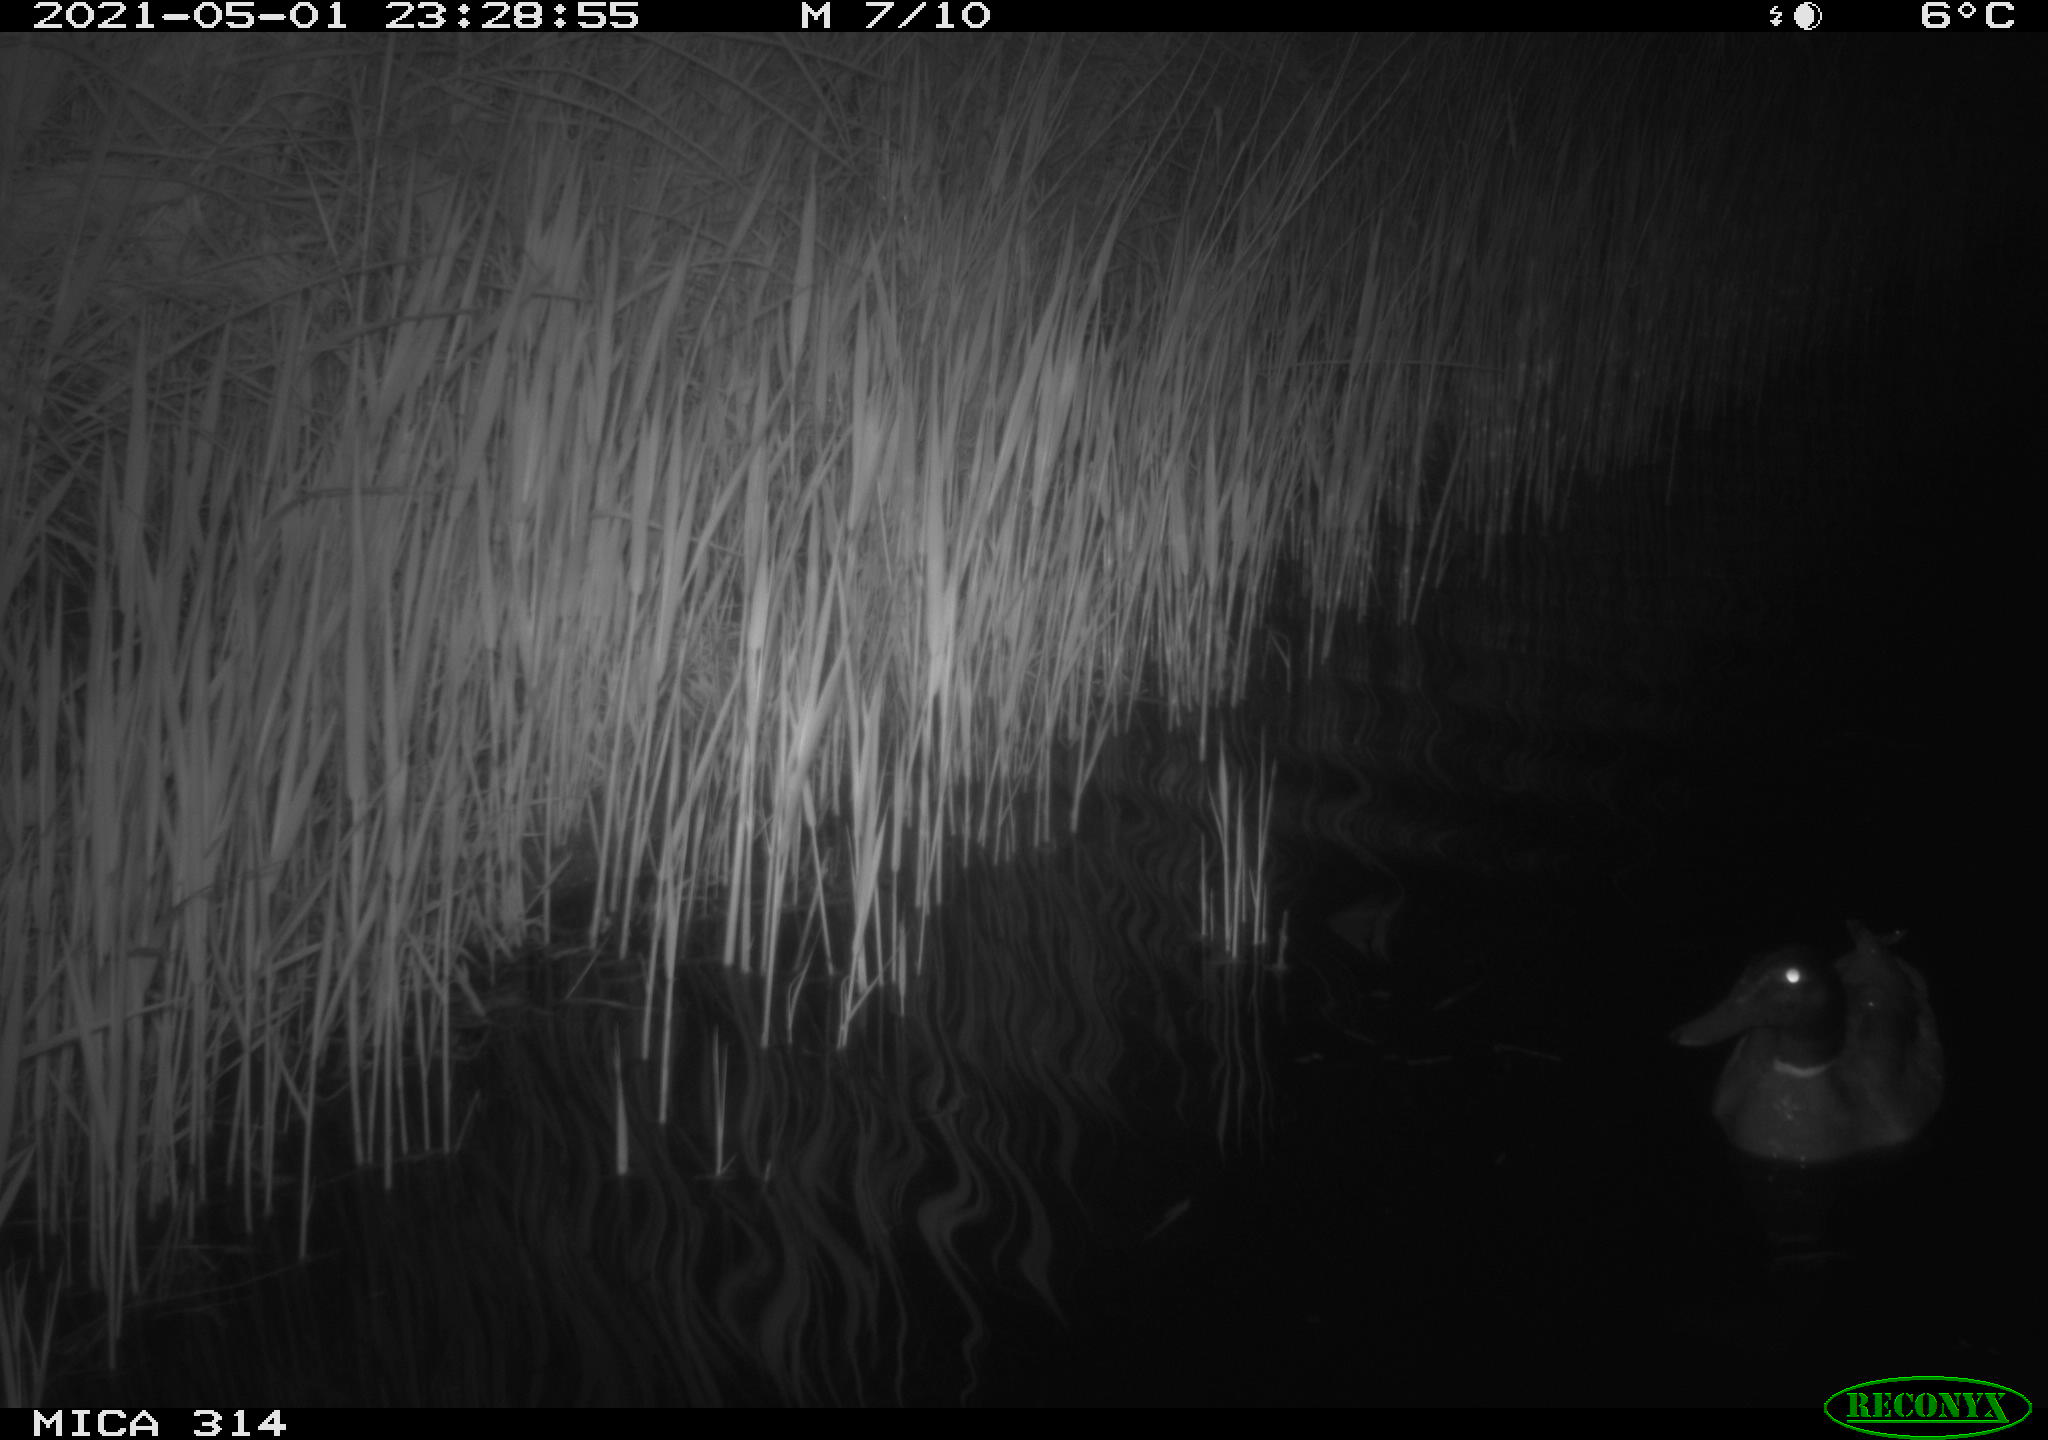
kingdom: Animalia
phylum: Chordata
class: Aves
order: Anseriformes
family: Anatidae
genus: Anas
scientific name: Anas platyrhynchos
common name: Mallard
